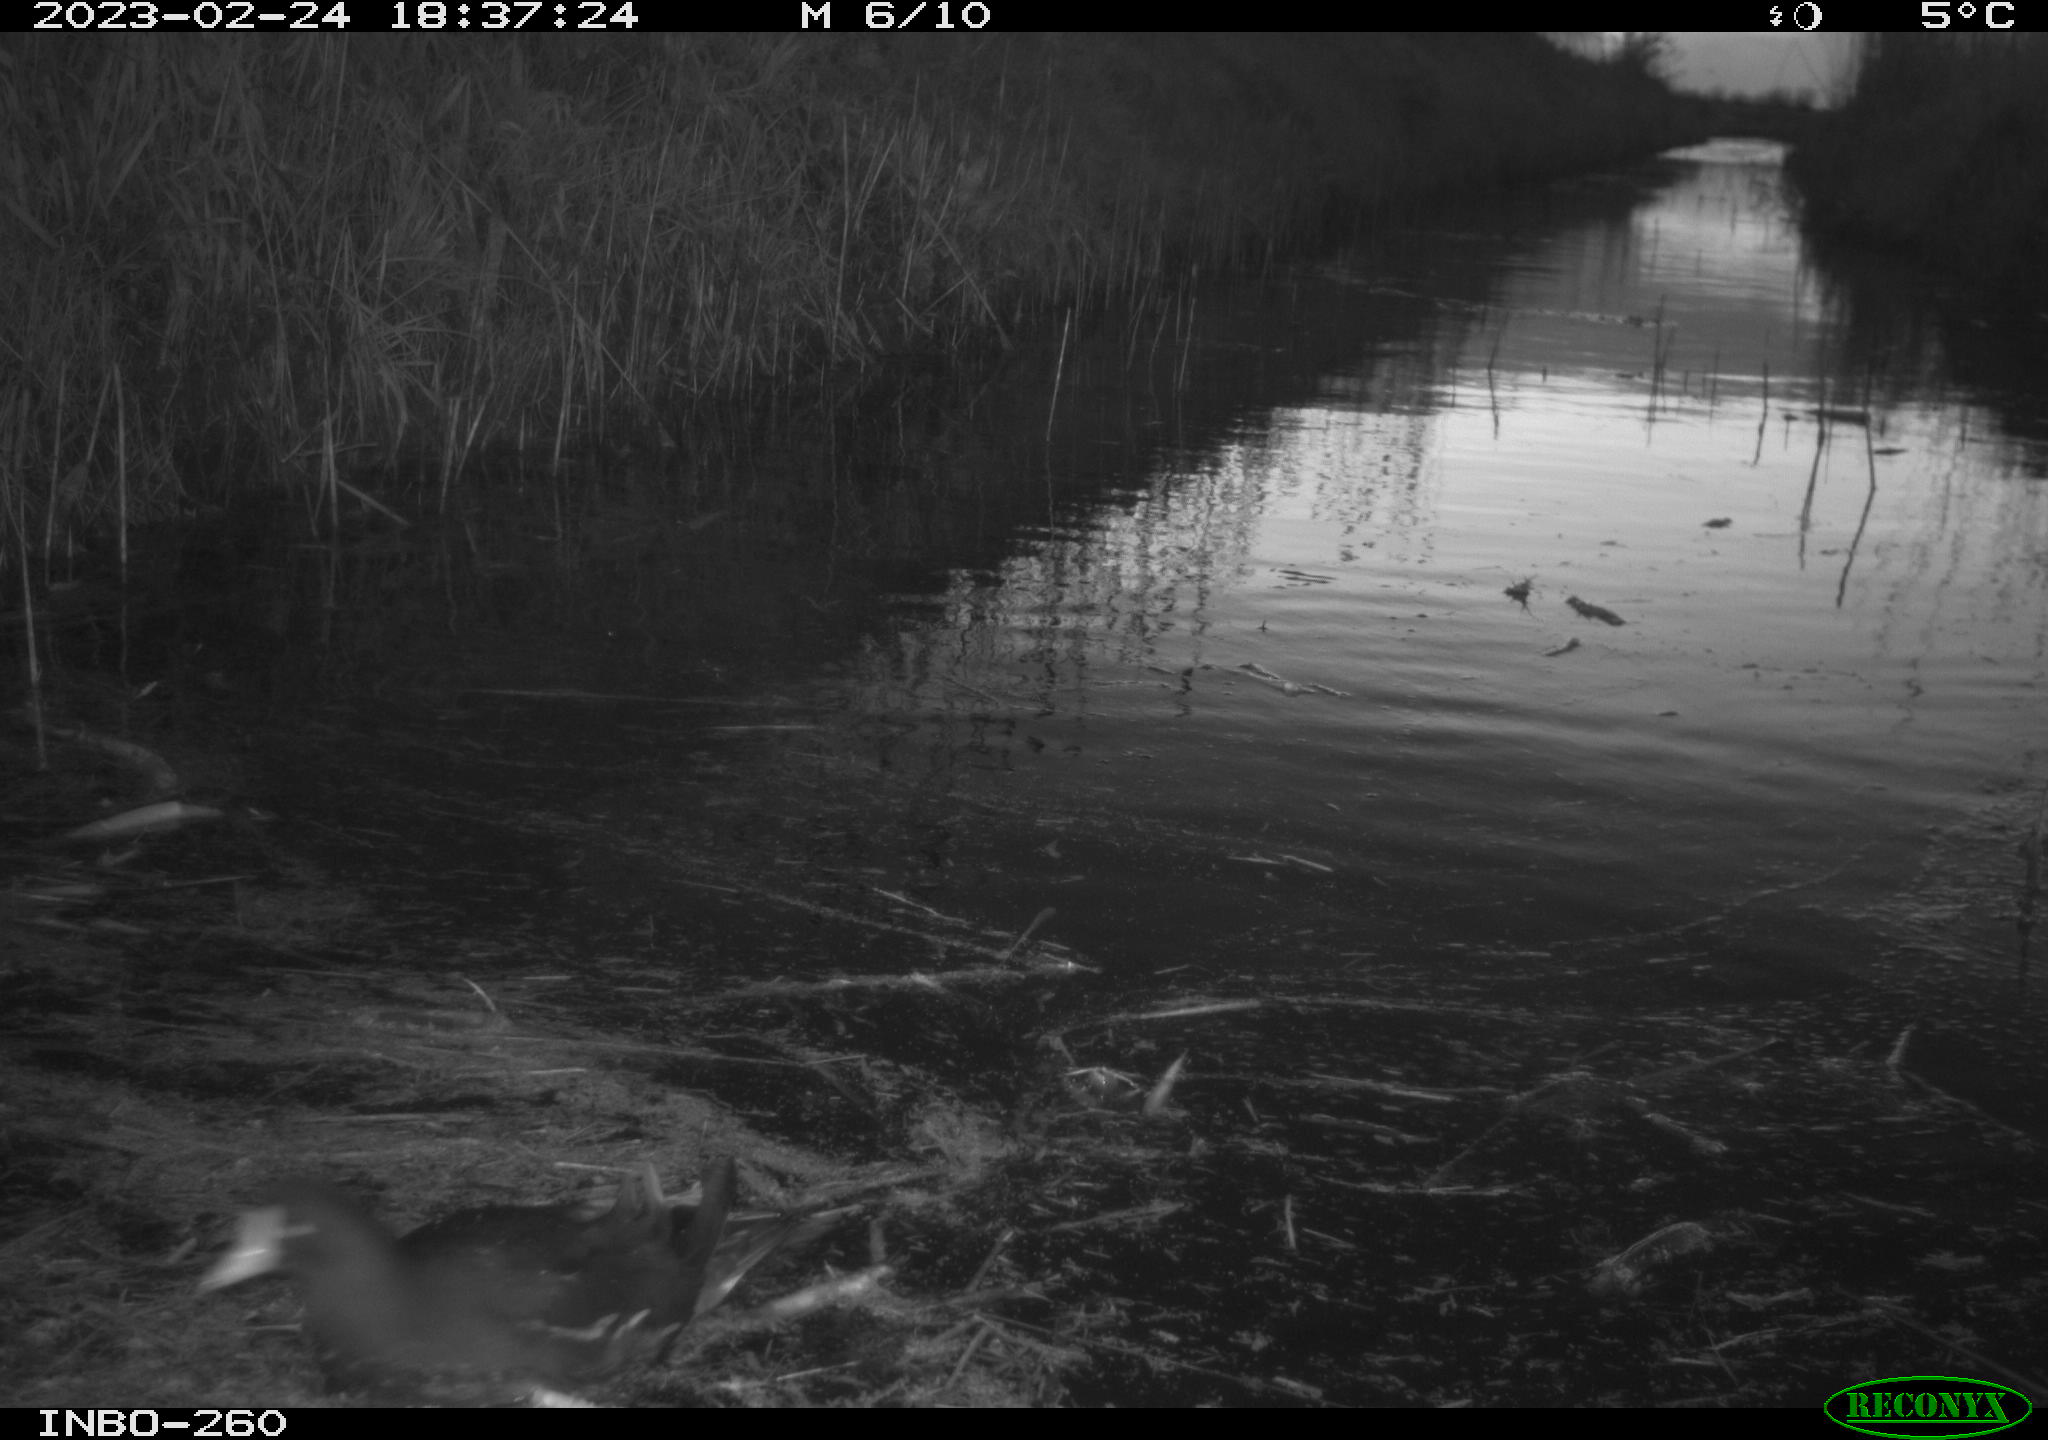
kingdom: Animalia
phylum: Chordata
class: Aves
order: Gruiformes
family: Rallidae
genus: Gallinula
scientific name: Gallinula chloropus
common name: Common moorhen
